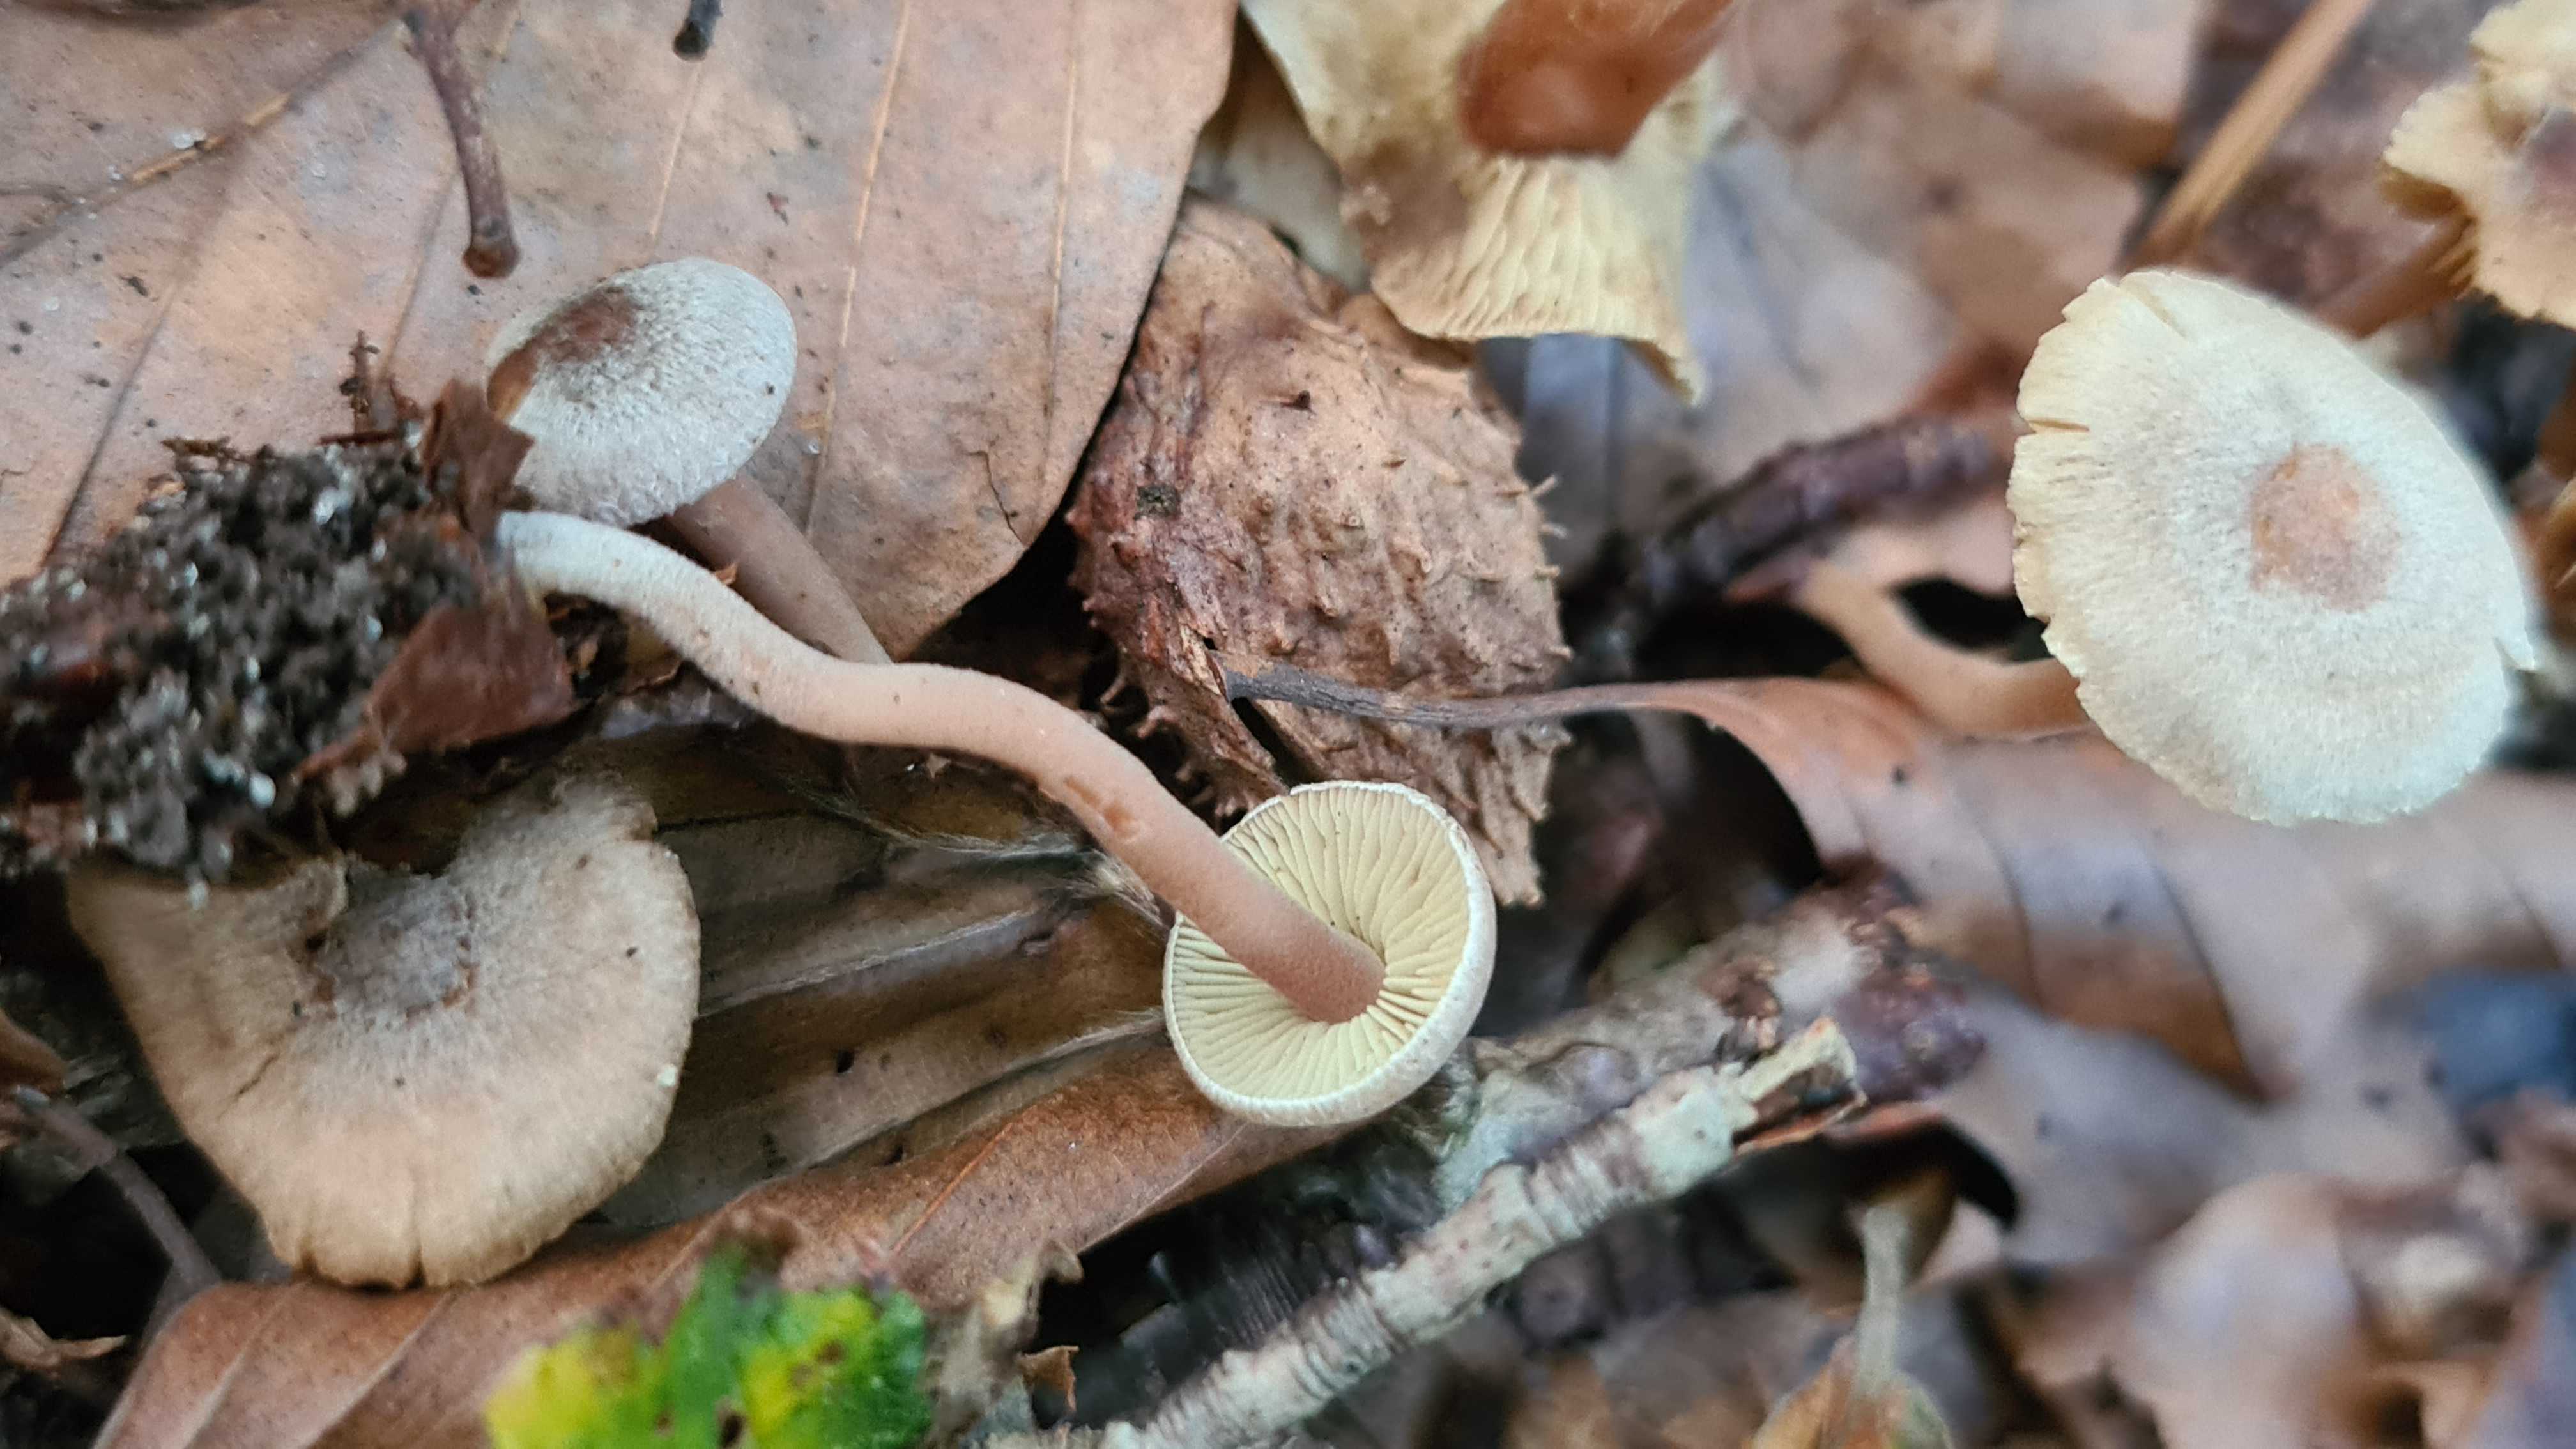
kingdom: Fungi
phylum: Basidiomycota
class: Agaricomycetes
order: Agaricales
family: Inocybaceae
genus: Inocybe
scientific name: Inocybe petiginosa
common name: liden trævlhat
